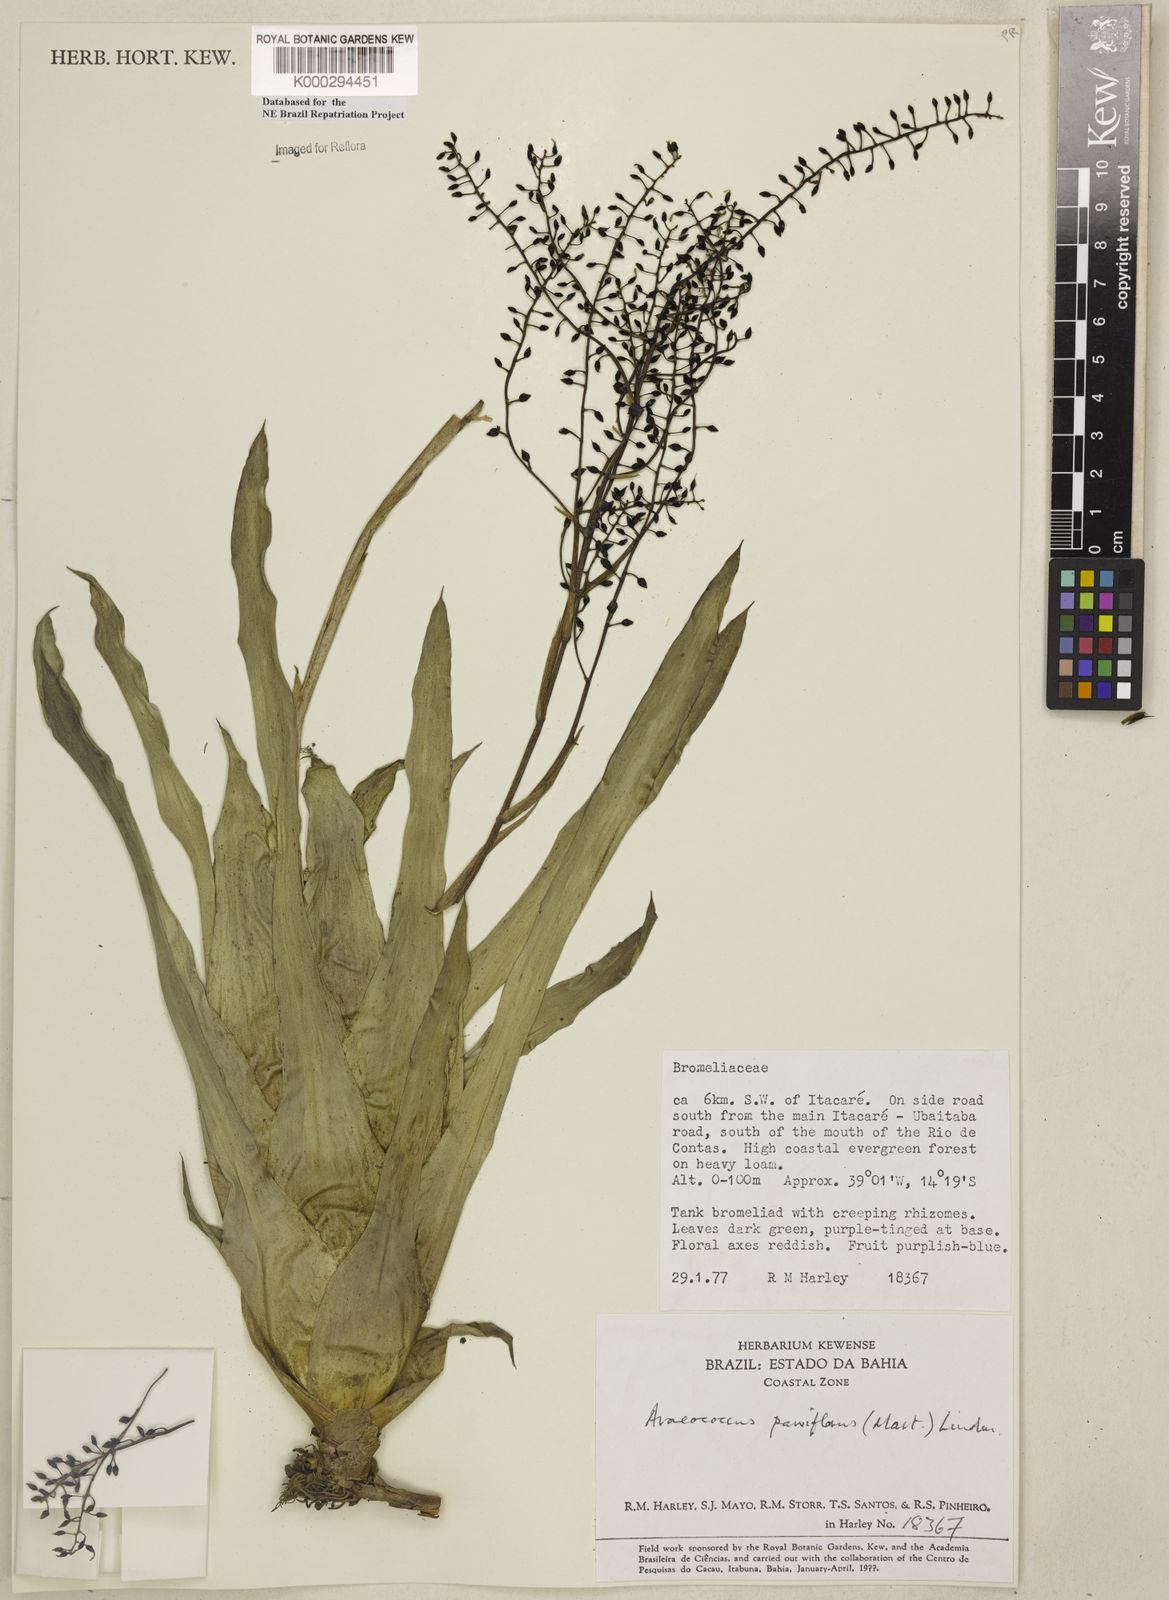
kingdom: Plantae
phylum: Tracheophyta
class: Liliopsida
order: Poales
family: Bromeliaceae
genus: Pseudaraeococcus
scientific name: Pseudaraeococcus parviflorus
